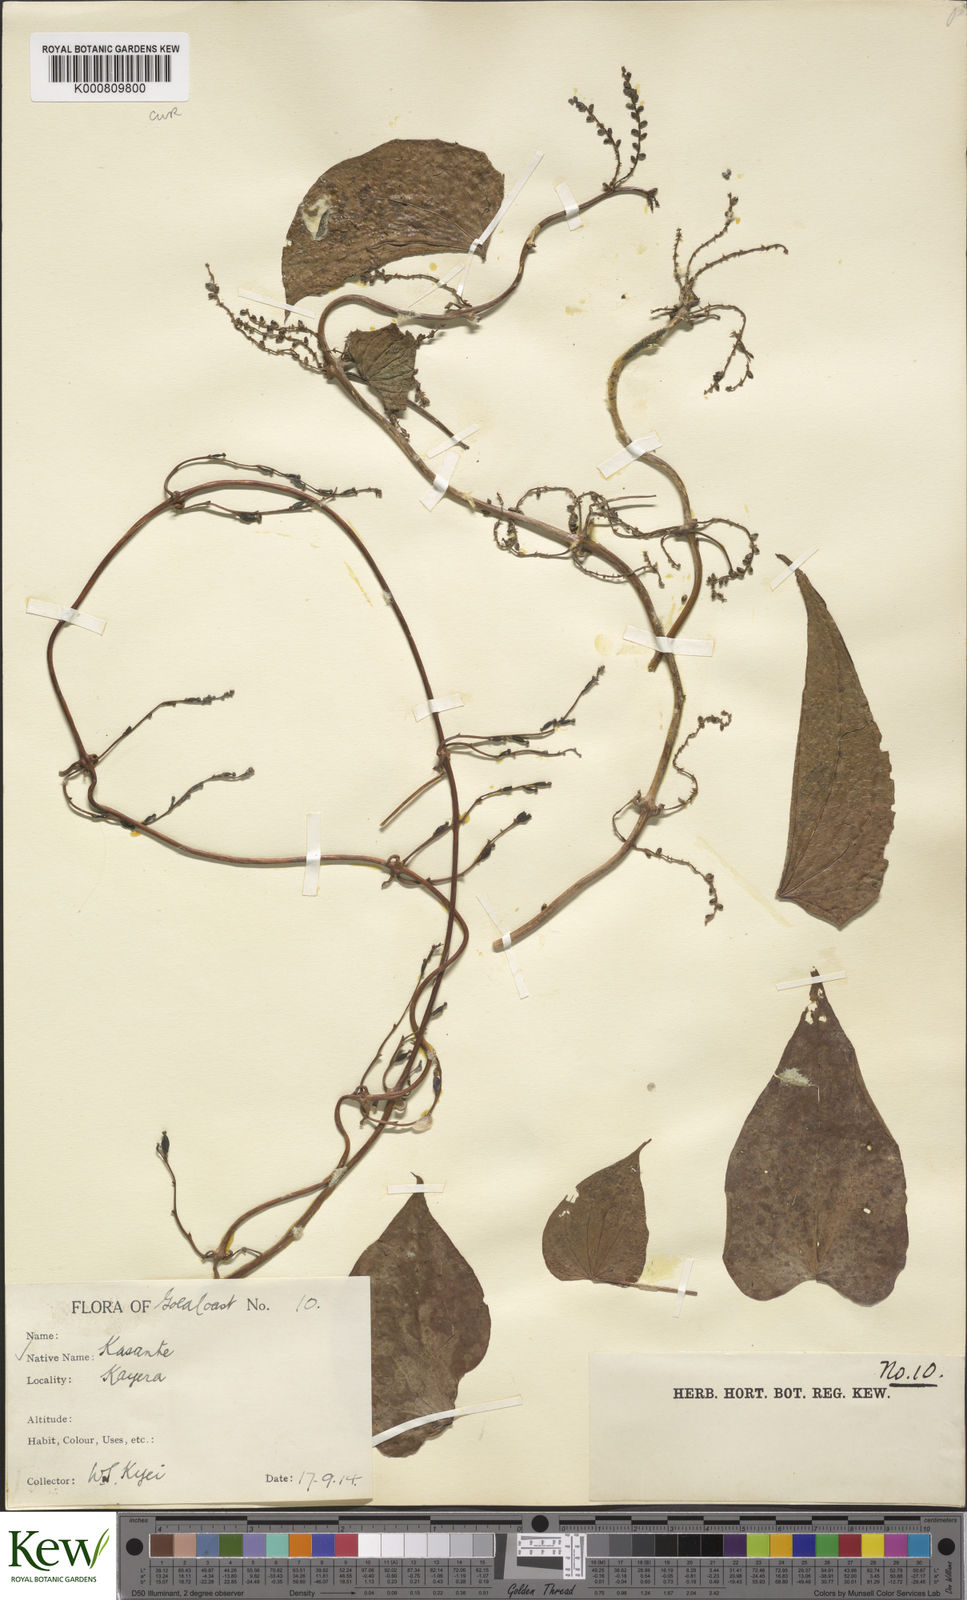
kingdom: Plantae
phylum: Tracheophyta
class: Liliopsida
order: Dioscoreales
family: Dioscoreaceae
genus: Dioscorea
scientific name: Dioscorea cayenensis
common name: Attoto yam
